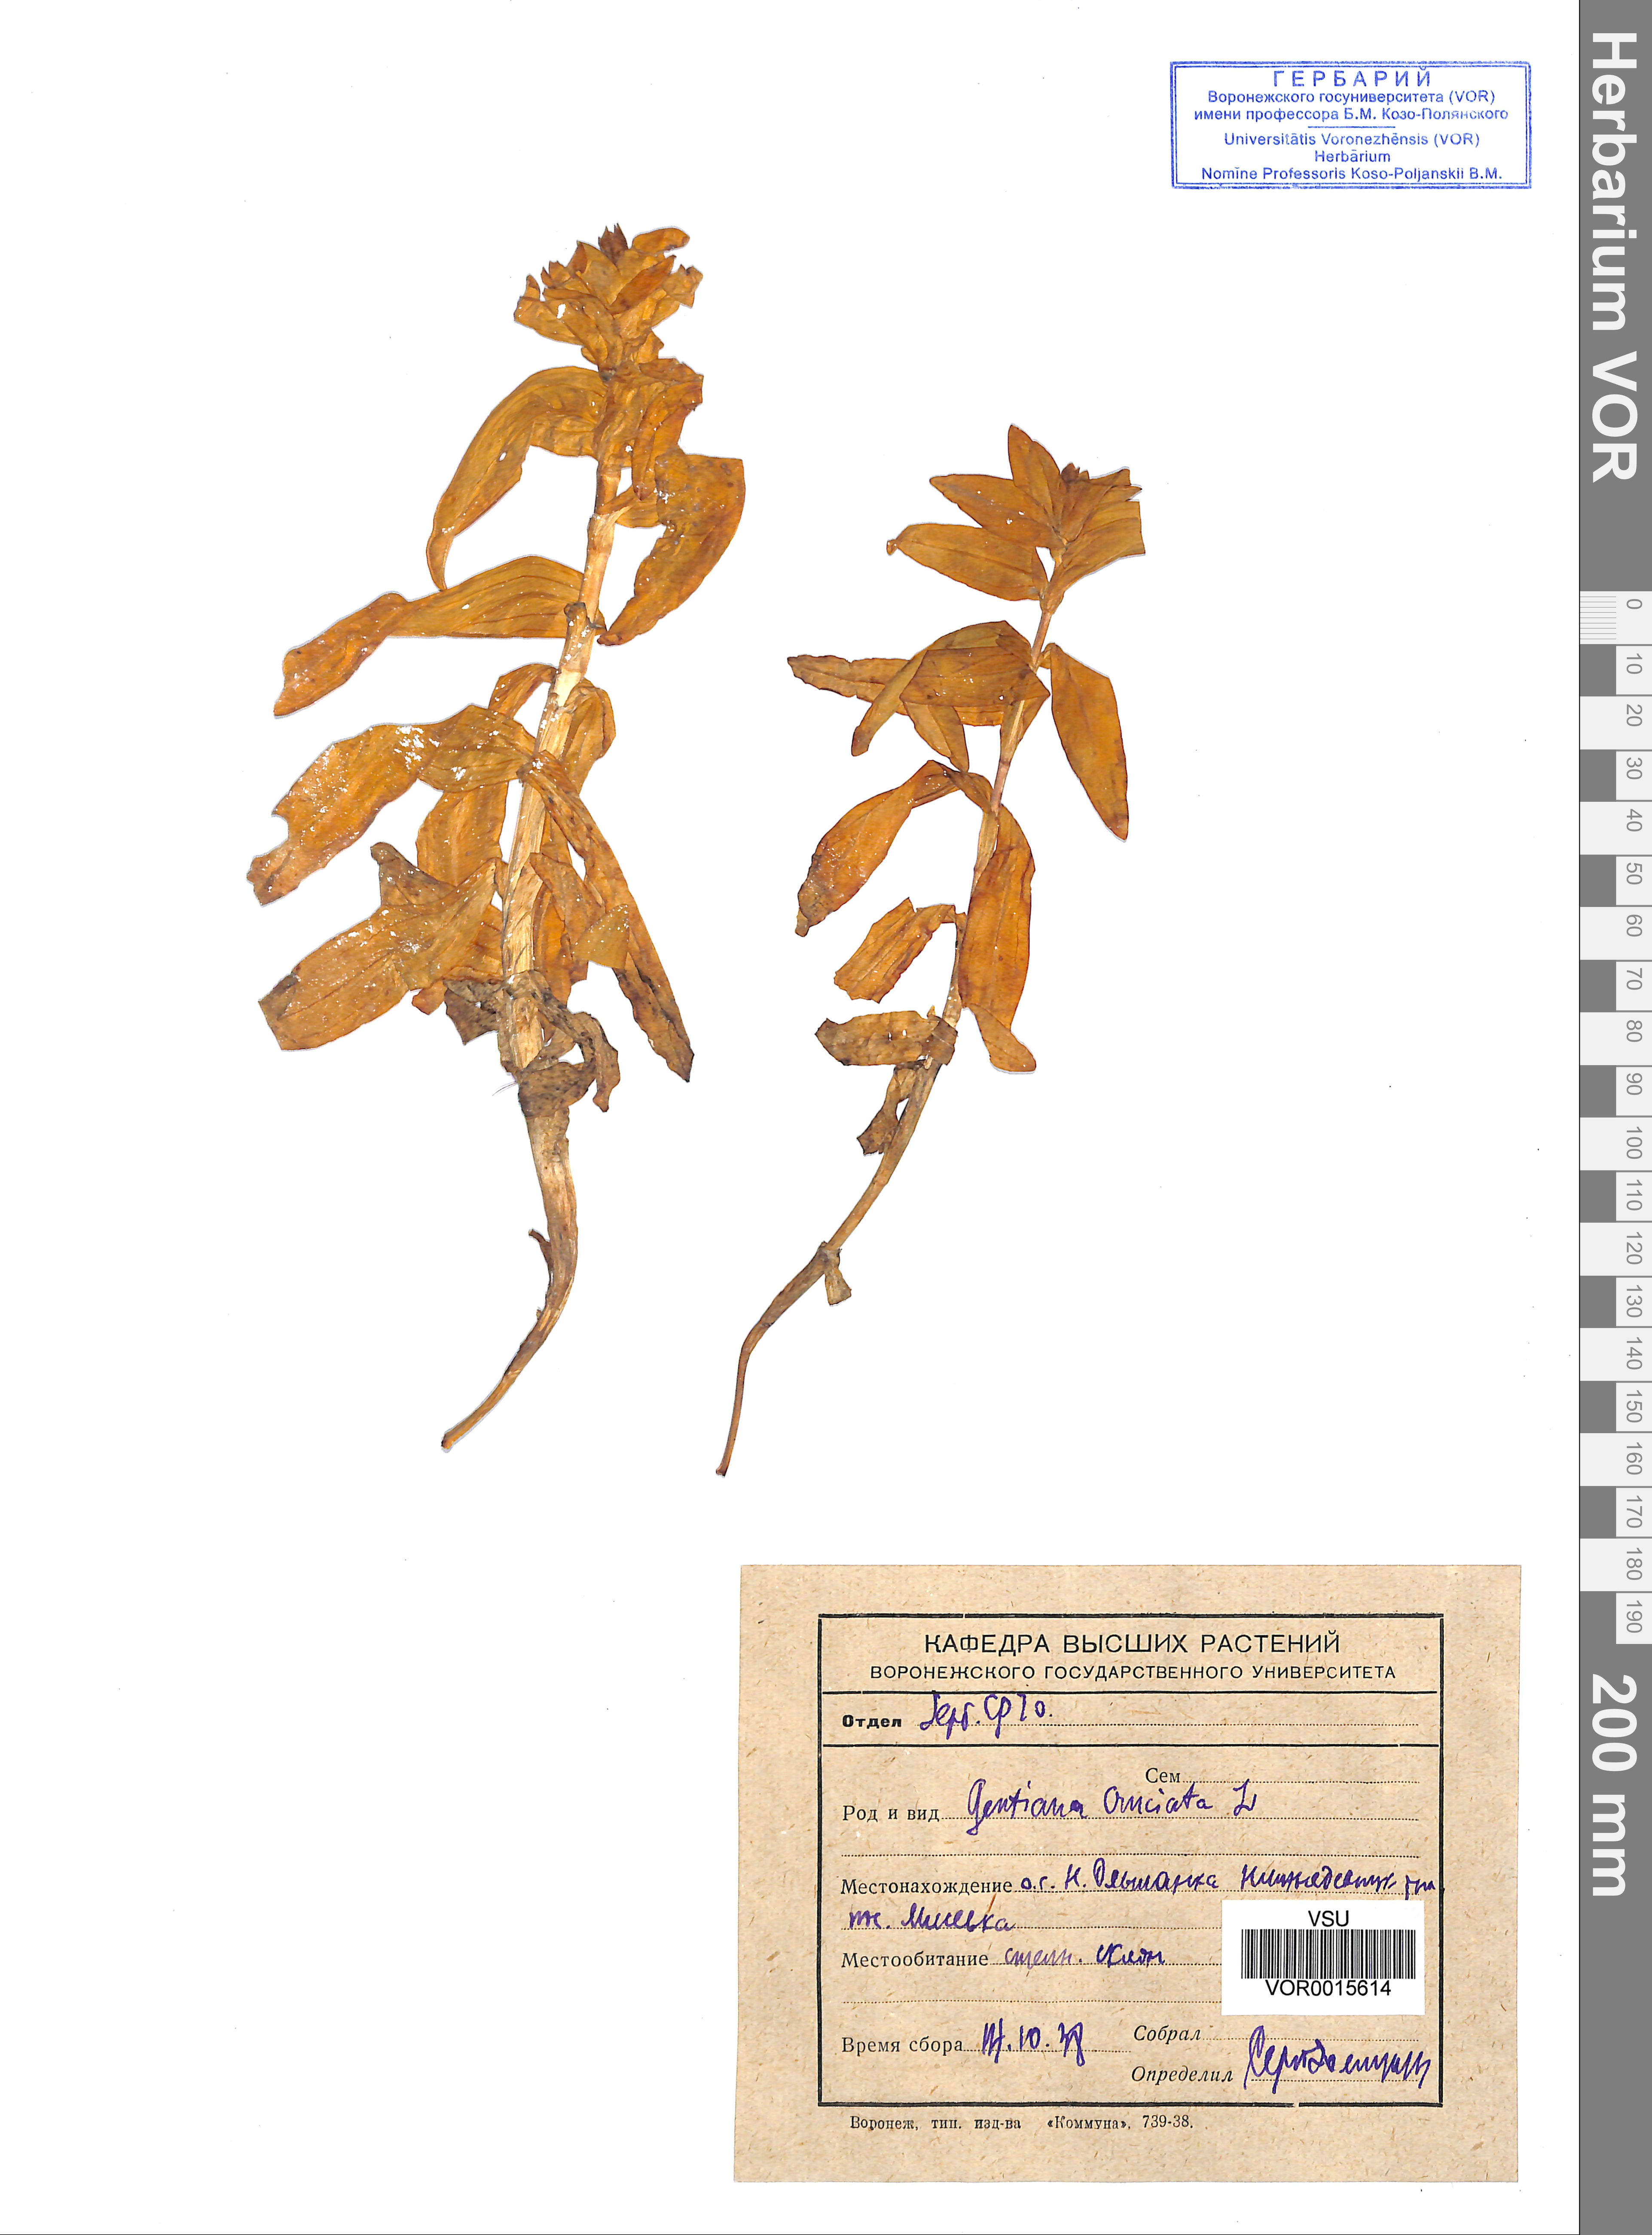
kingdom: Plantae
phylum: Tracheophyta
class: Magnoliopsida
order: Gentianales
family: Gentianaceae
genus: Gentiana
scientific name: Gentiana cruciata
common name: Cross gentian
